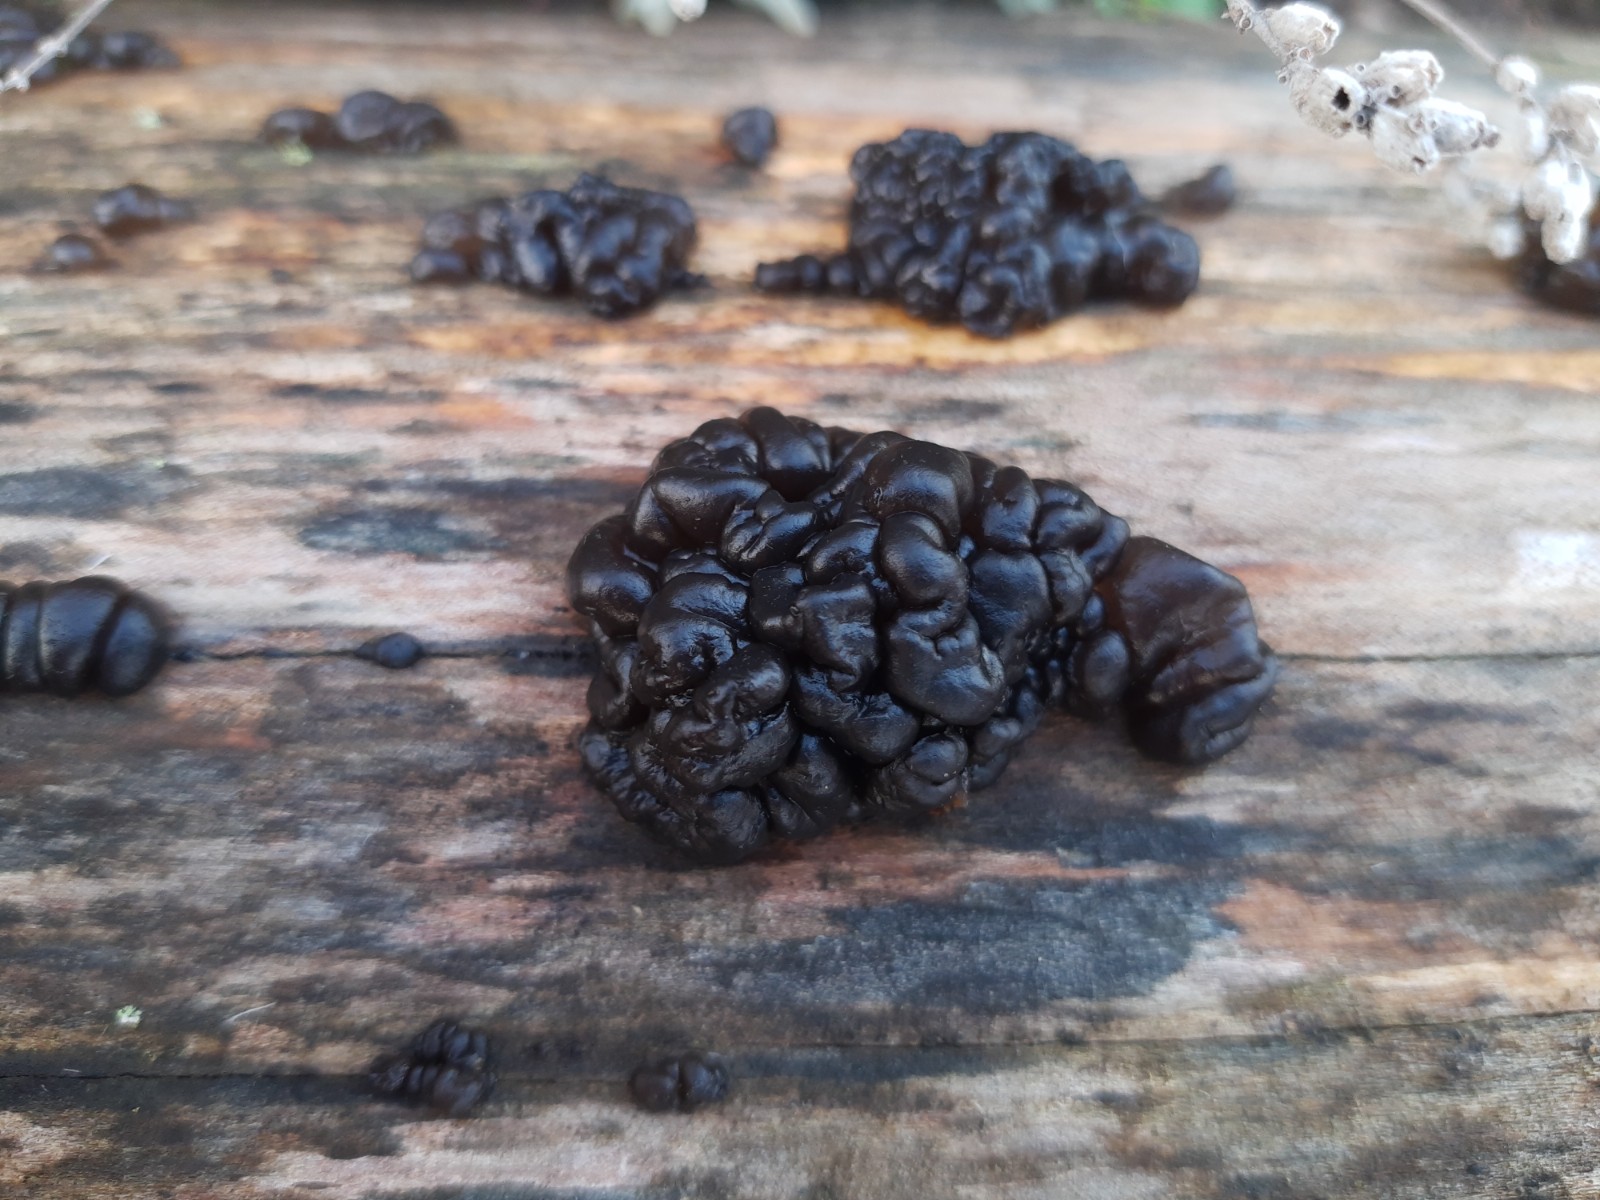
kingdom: Fungi
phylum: Basidiomycota
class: Agaricomycetes
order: Auriculariales
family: Auriculariaceae
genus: Exidia
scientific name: Exidia nigricans
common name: almindelig bævretop
